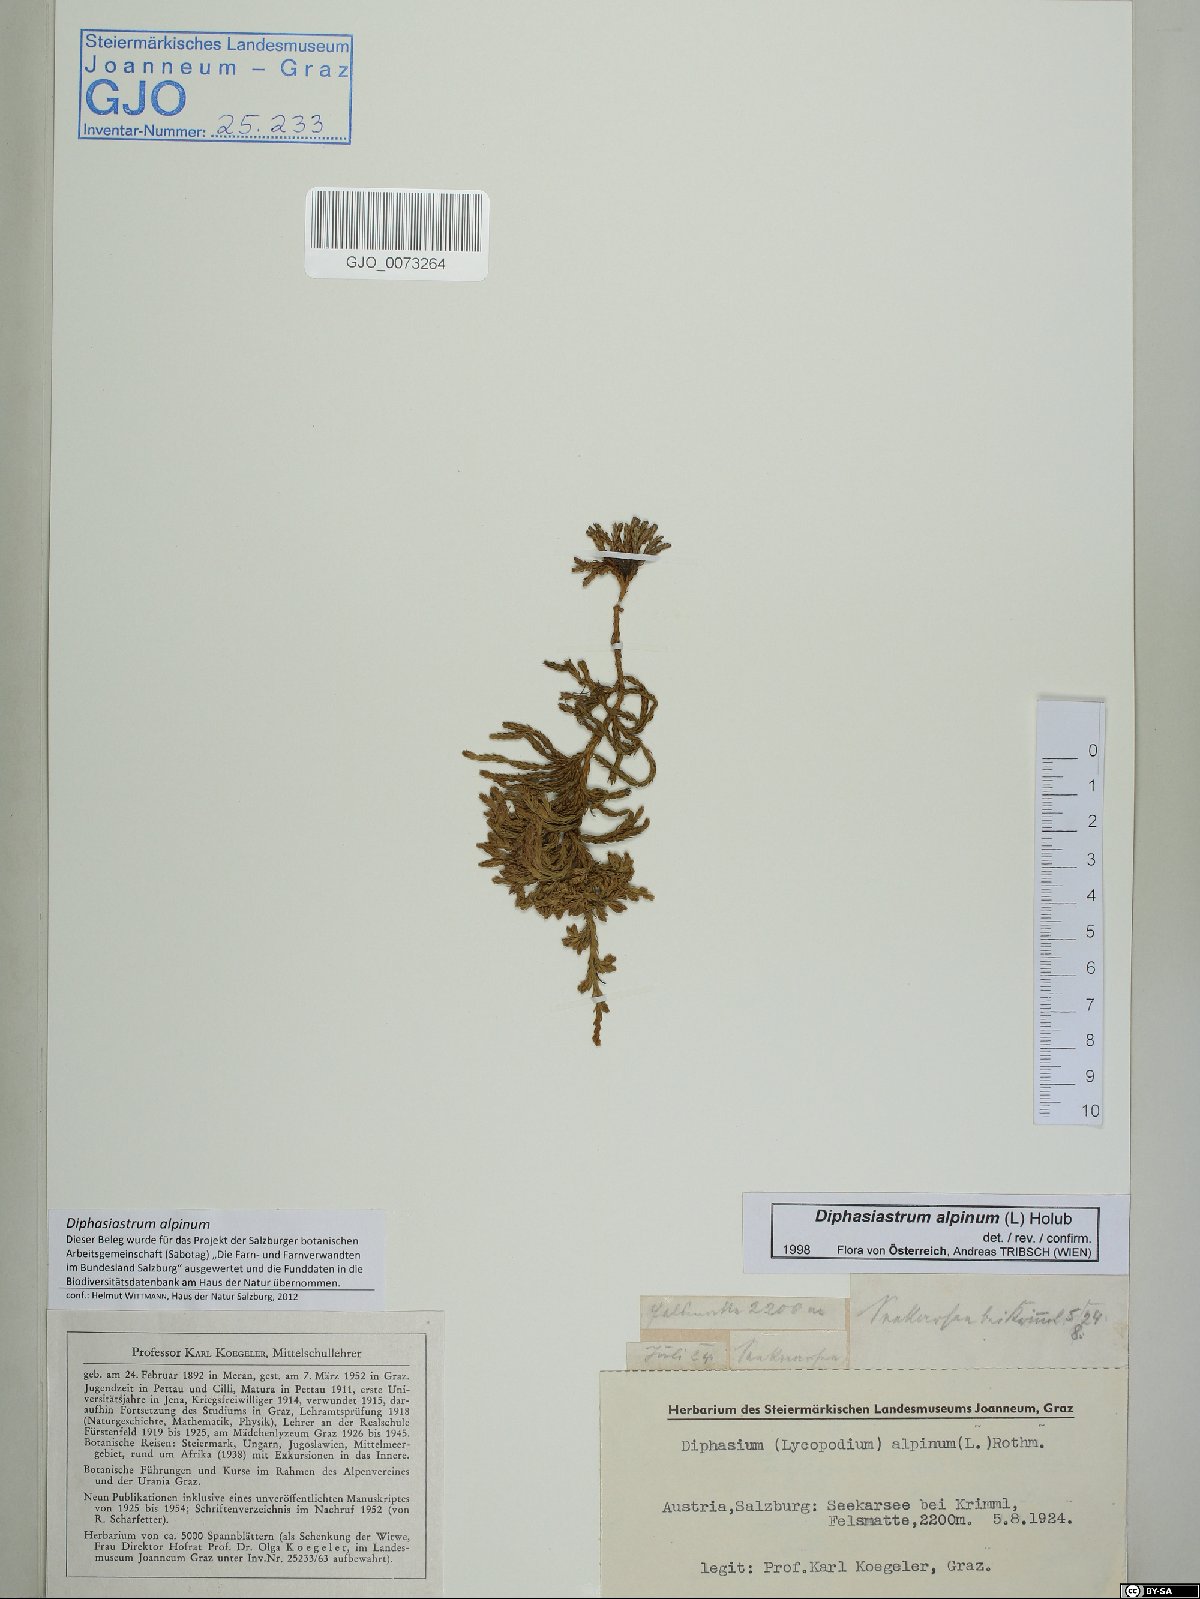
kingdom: Plantae
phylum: Tracheophyta
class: Lycopodiopsida
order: Lycopodiales
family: Lycopodiaceae
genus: Diphasiastrum
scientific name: Diphasiastrum alpinum
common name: Alpine clubmoss
